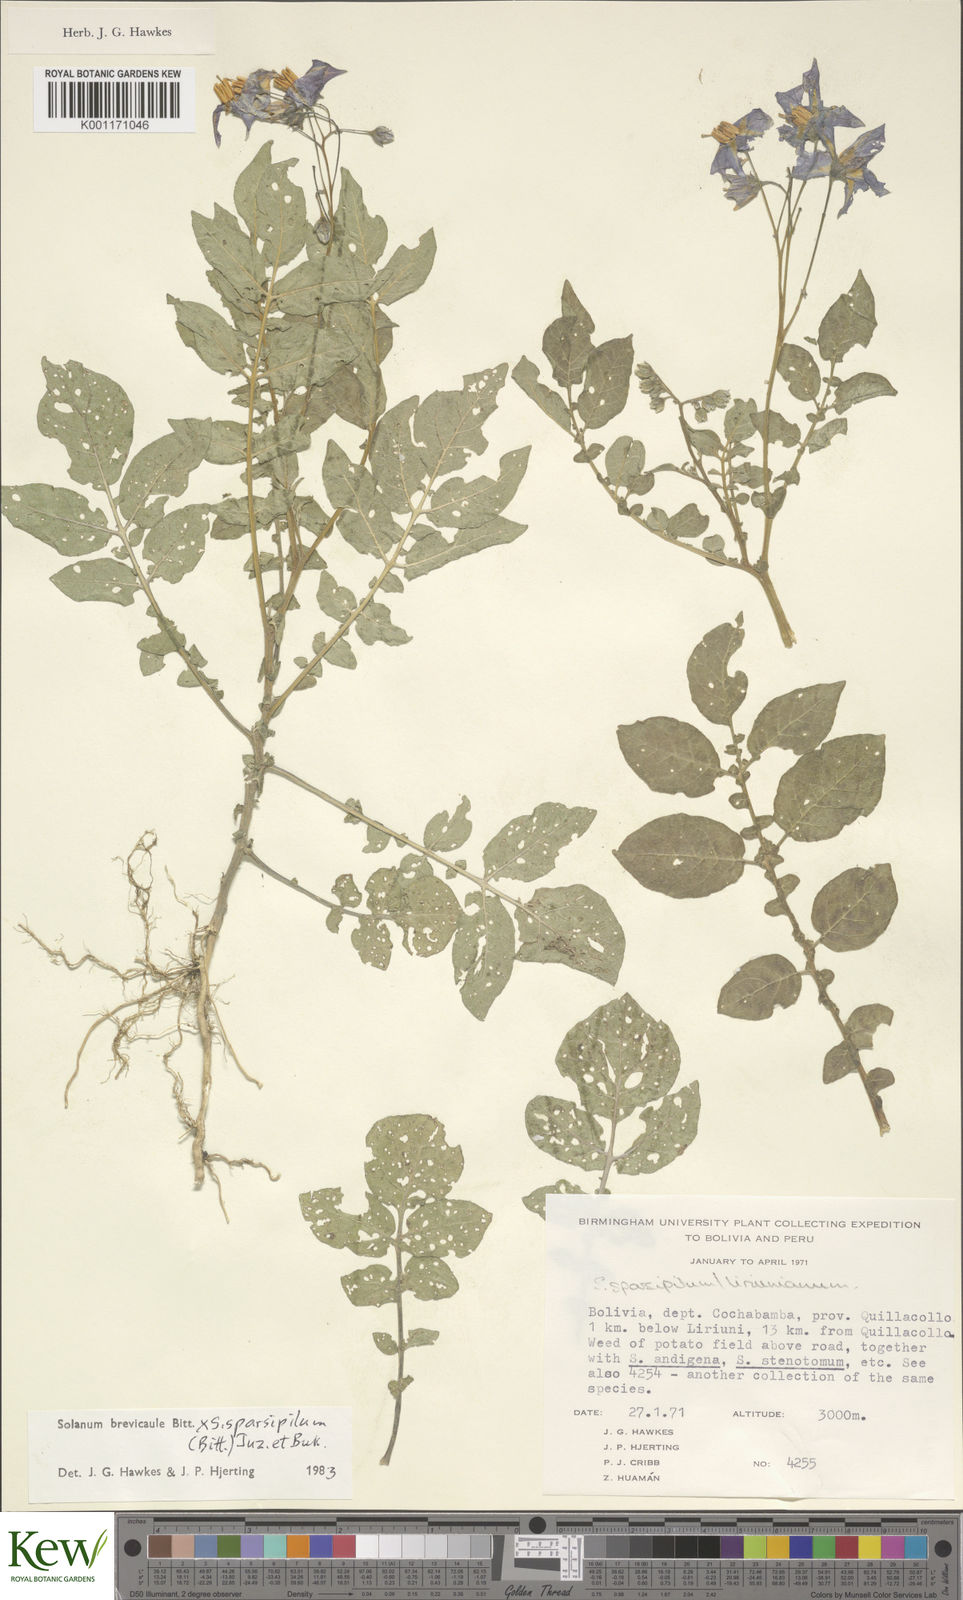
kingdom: Plantae
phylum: Tracheophyta
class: Magnoliopsida
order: Solanales
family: Solanaceae
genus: Solanum
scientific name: Solanum brevicaule
